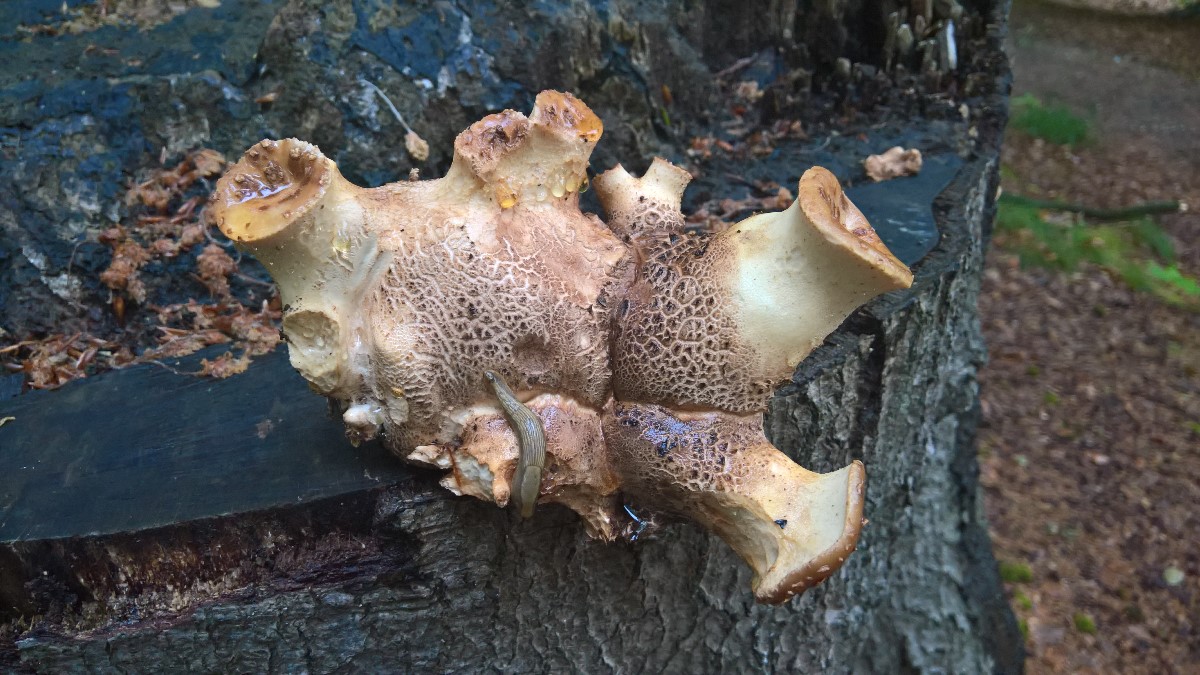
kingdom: Fungi
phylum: Basidiomycota
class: Agaricomycetes
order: Polyporales
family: Polyporaceae
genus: Cerioporus
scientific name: Cerioporus squamosus
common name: skællet stilkporesvamp
